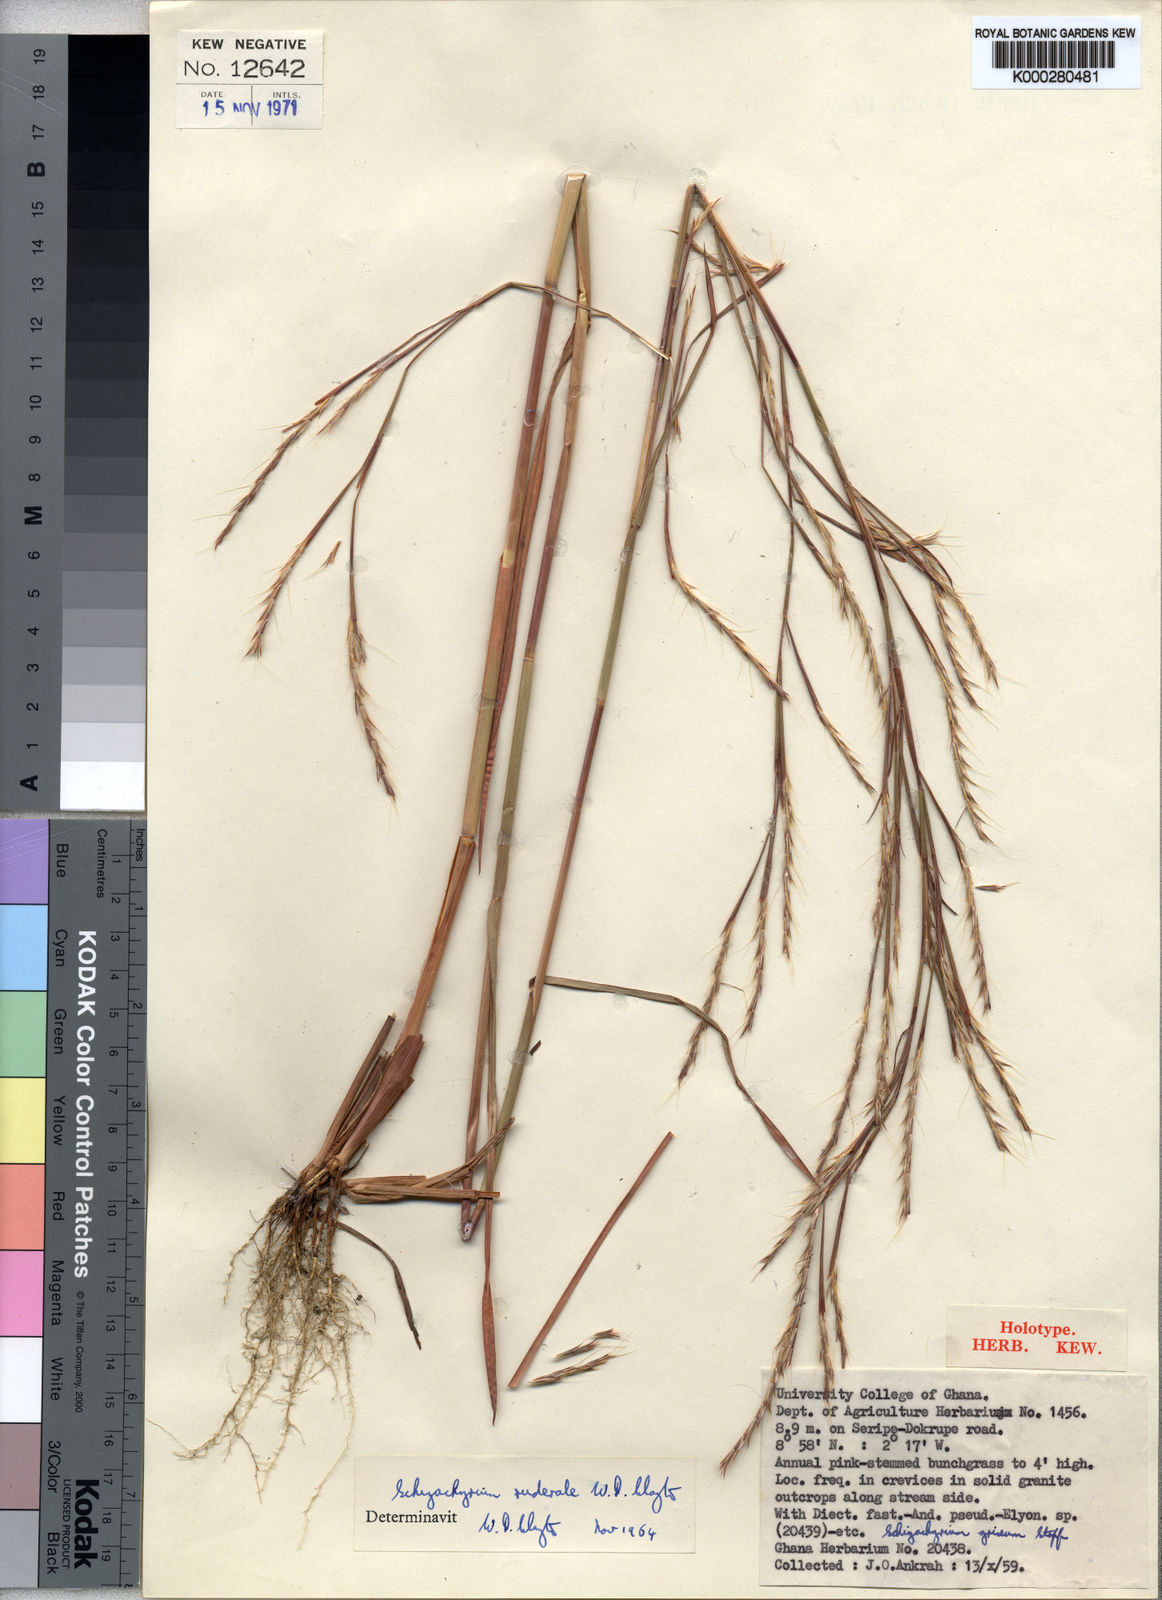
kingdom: Plantae
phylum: Tracheophyta
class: Liliopsida
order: Poales
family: Poaceae
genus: Schizachyrium
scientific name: Schizachyrium ruderale
